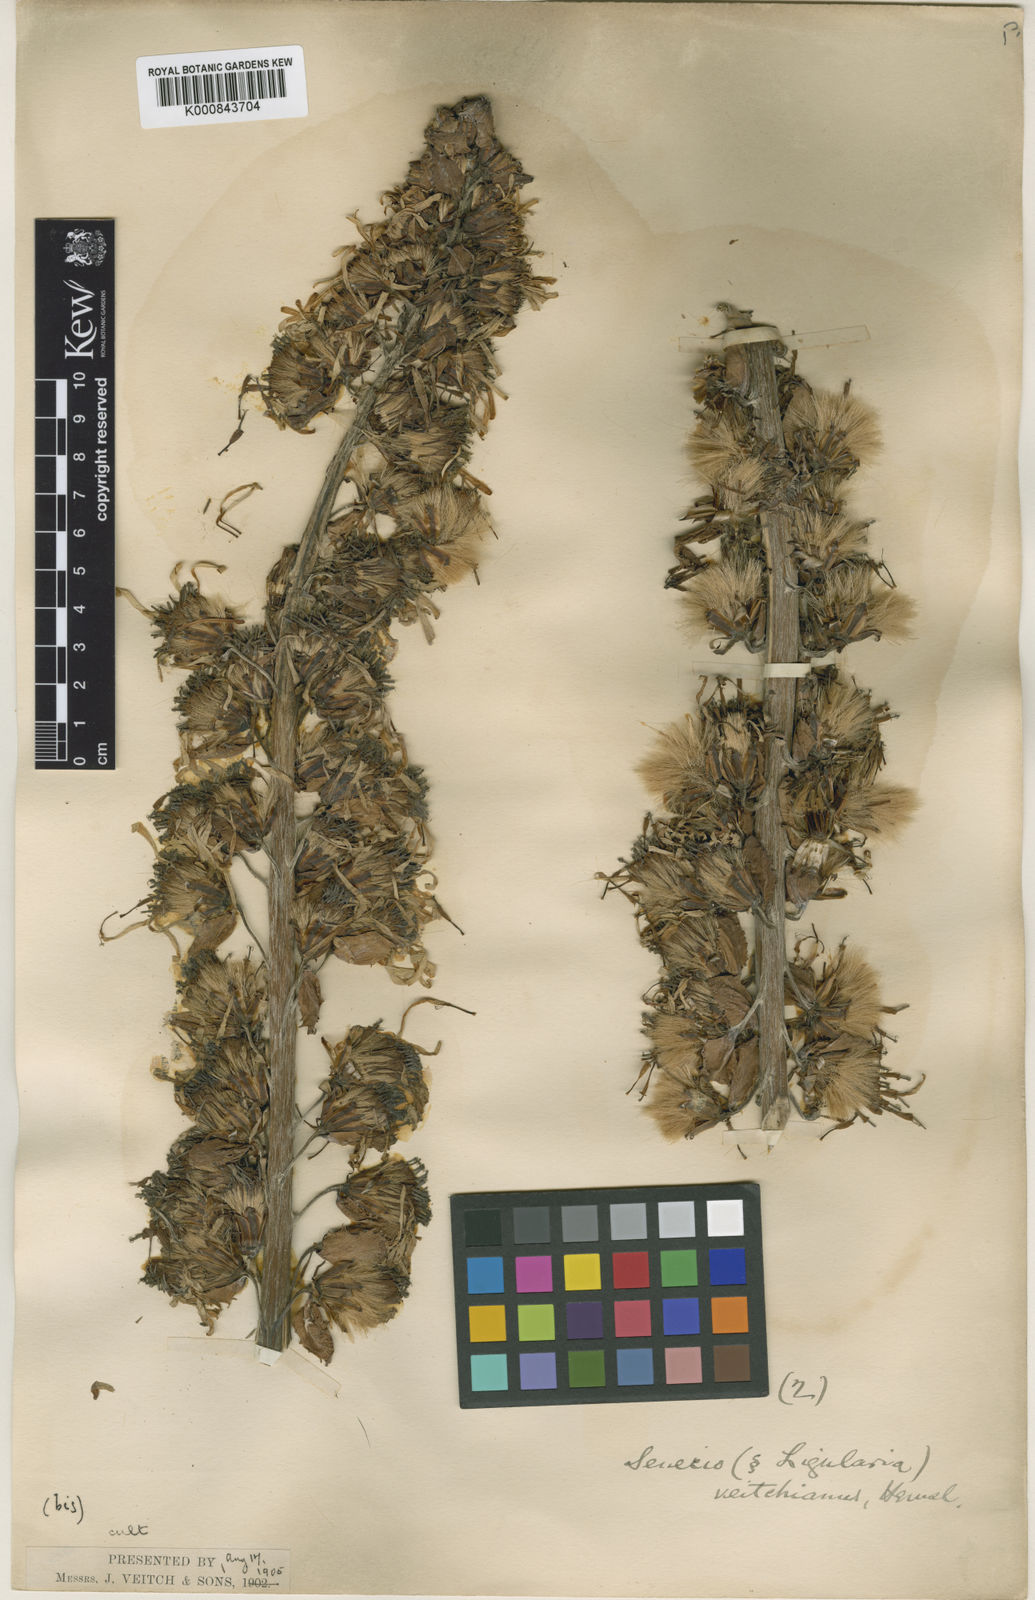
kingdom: Plantae
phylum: Tracheophyta
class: Magnoliopsida
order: Asterales
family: Asteraceae
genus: Senecio
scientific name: Senecio
